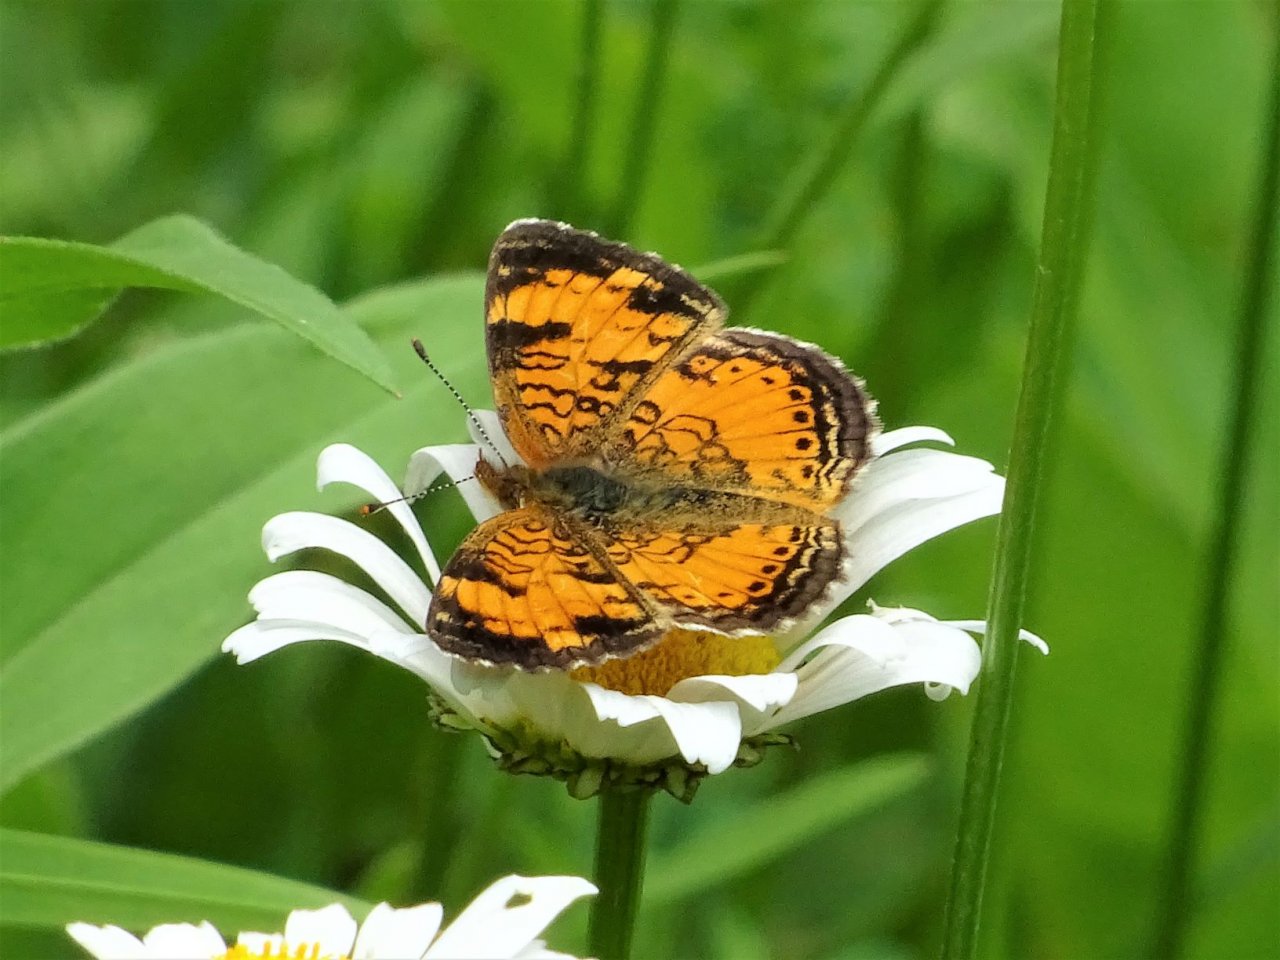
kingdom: Animalia
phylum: Arthropoda
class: Insecta
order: Lepidoptera
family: Nymphalidae
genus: Phyciodes
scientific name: Phyciodes
